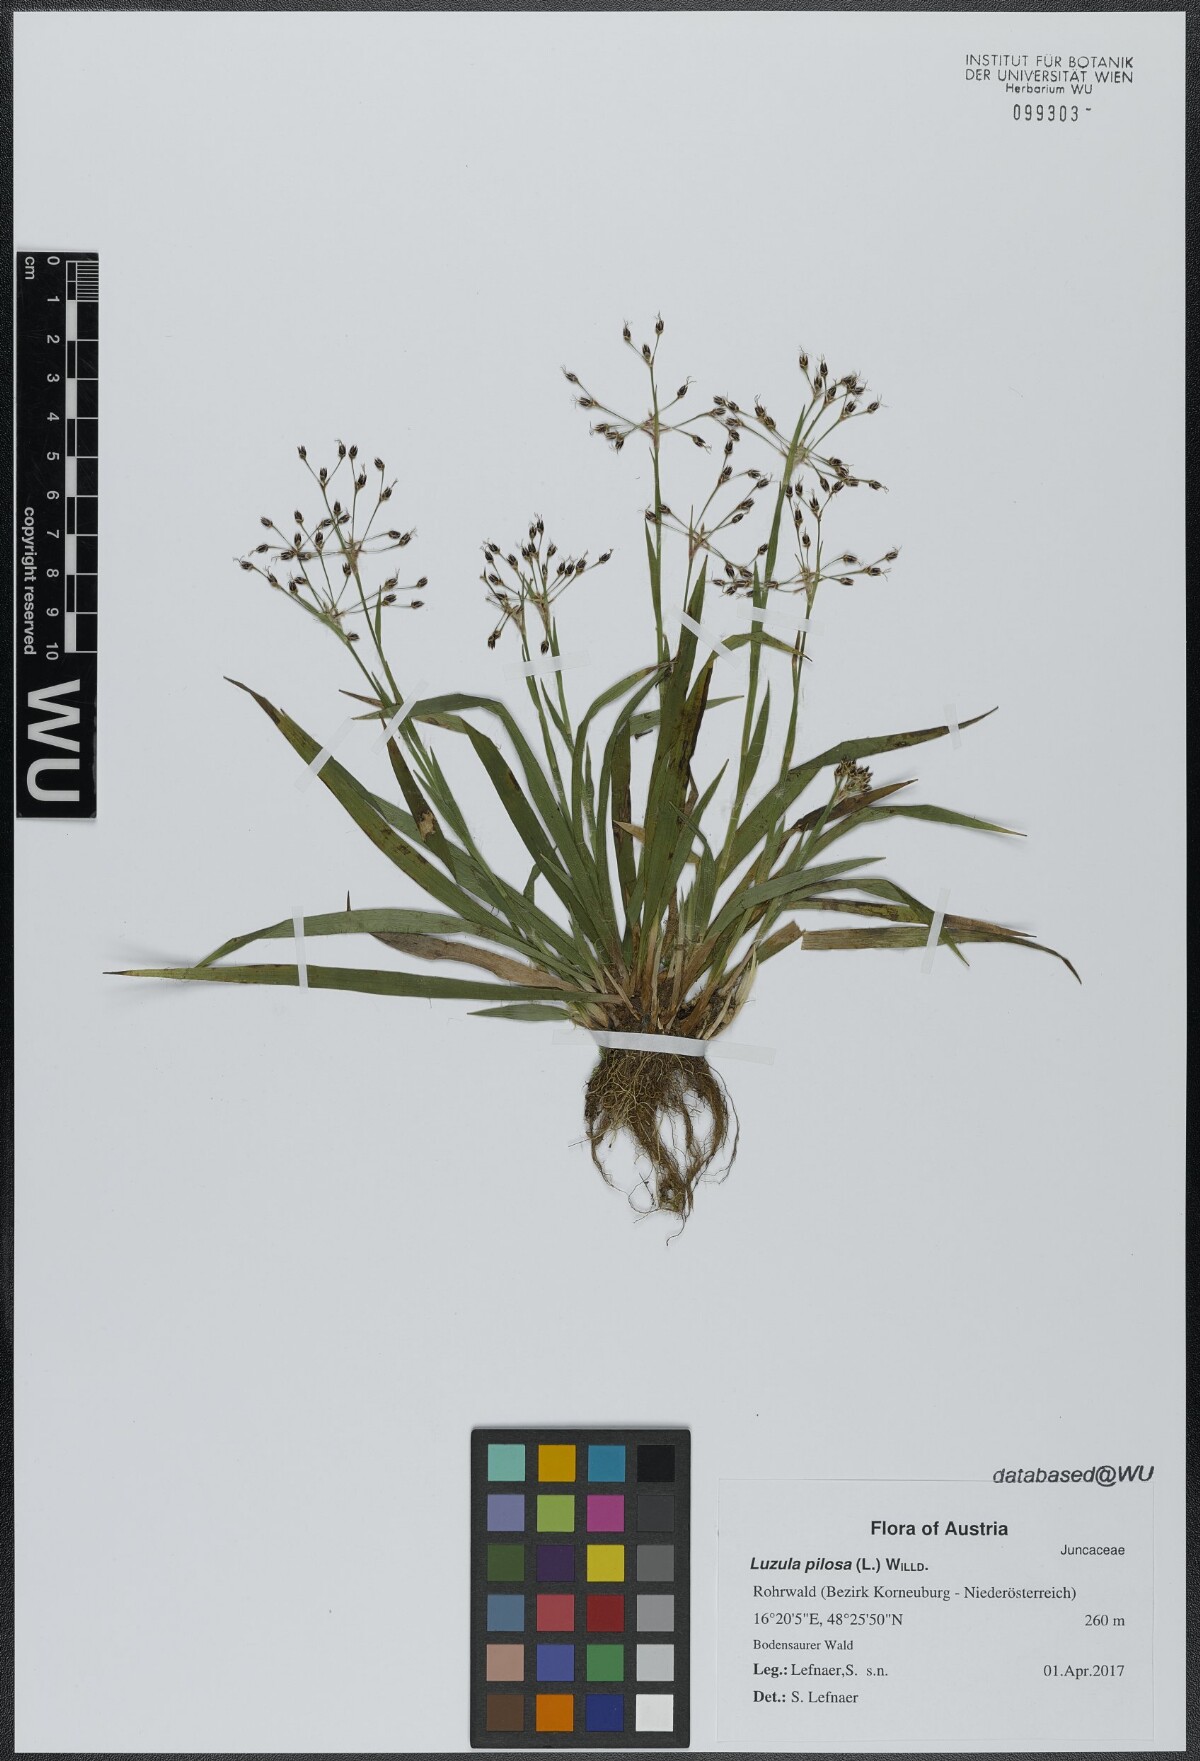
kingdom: Plantae
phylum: Tracheophyta
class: Liliopsida
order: Poales
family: Juncaceae
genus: Luzula
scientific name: Luzula pilosa
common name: Hairy wood-rush
